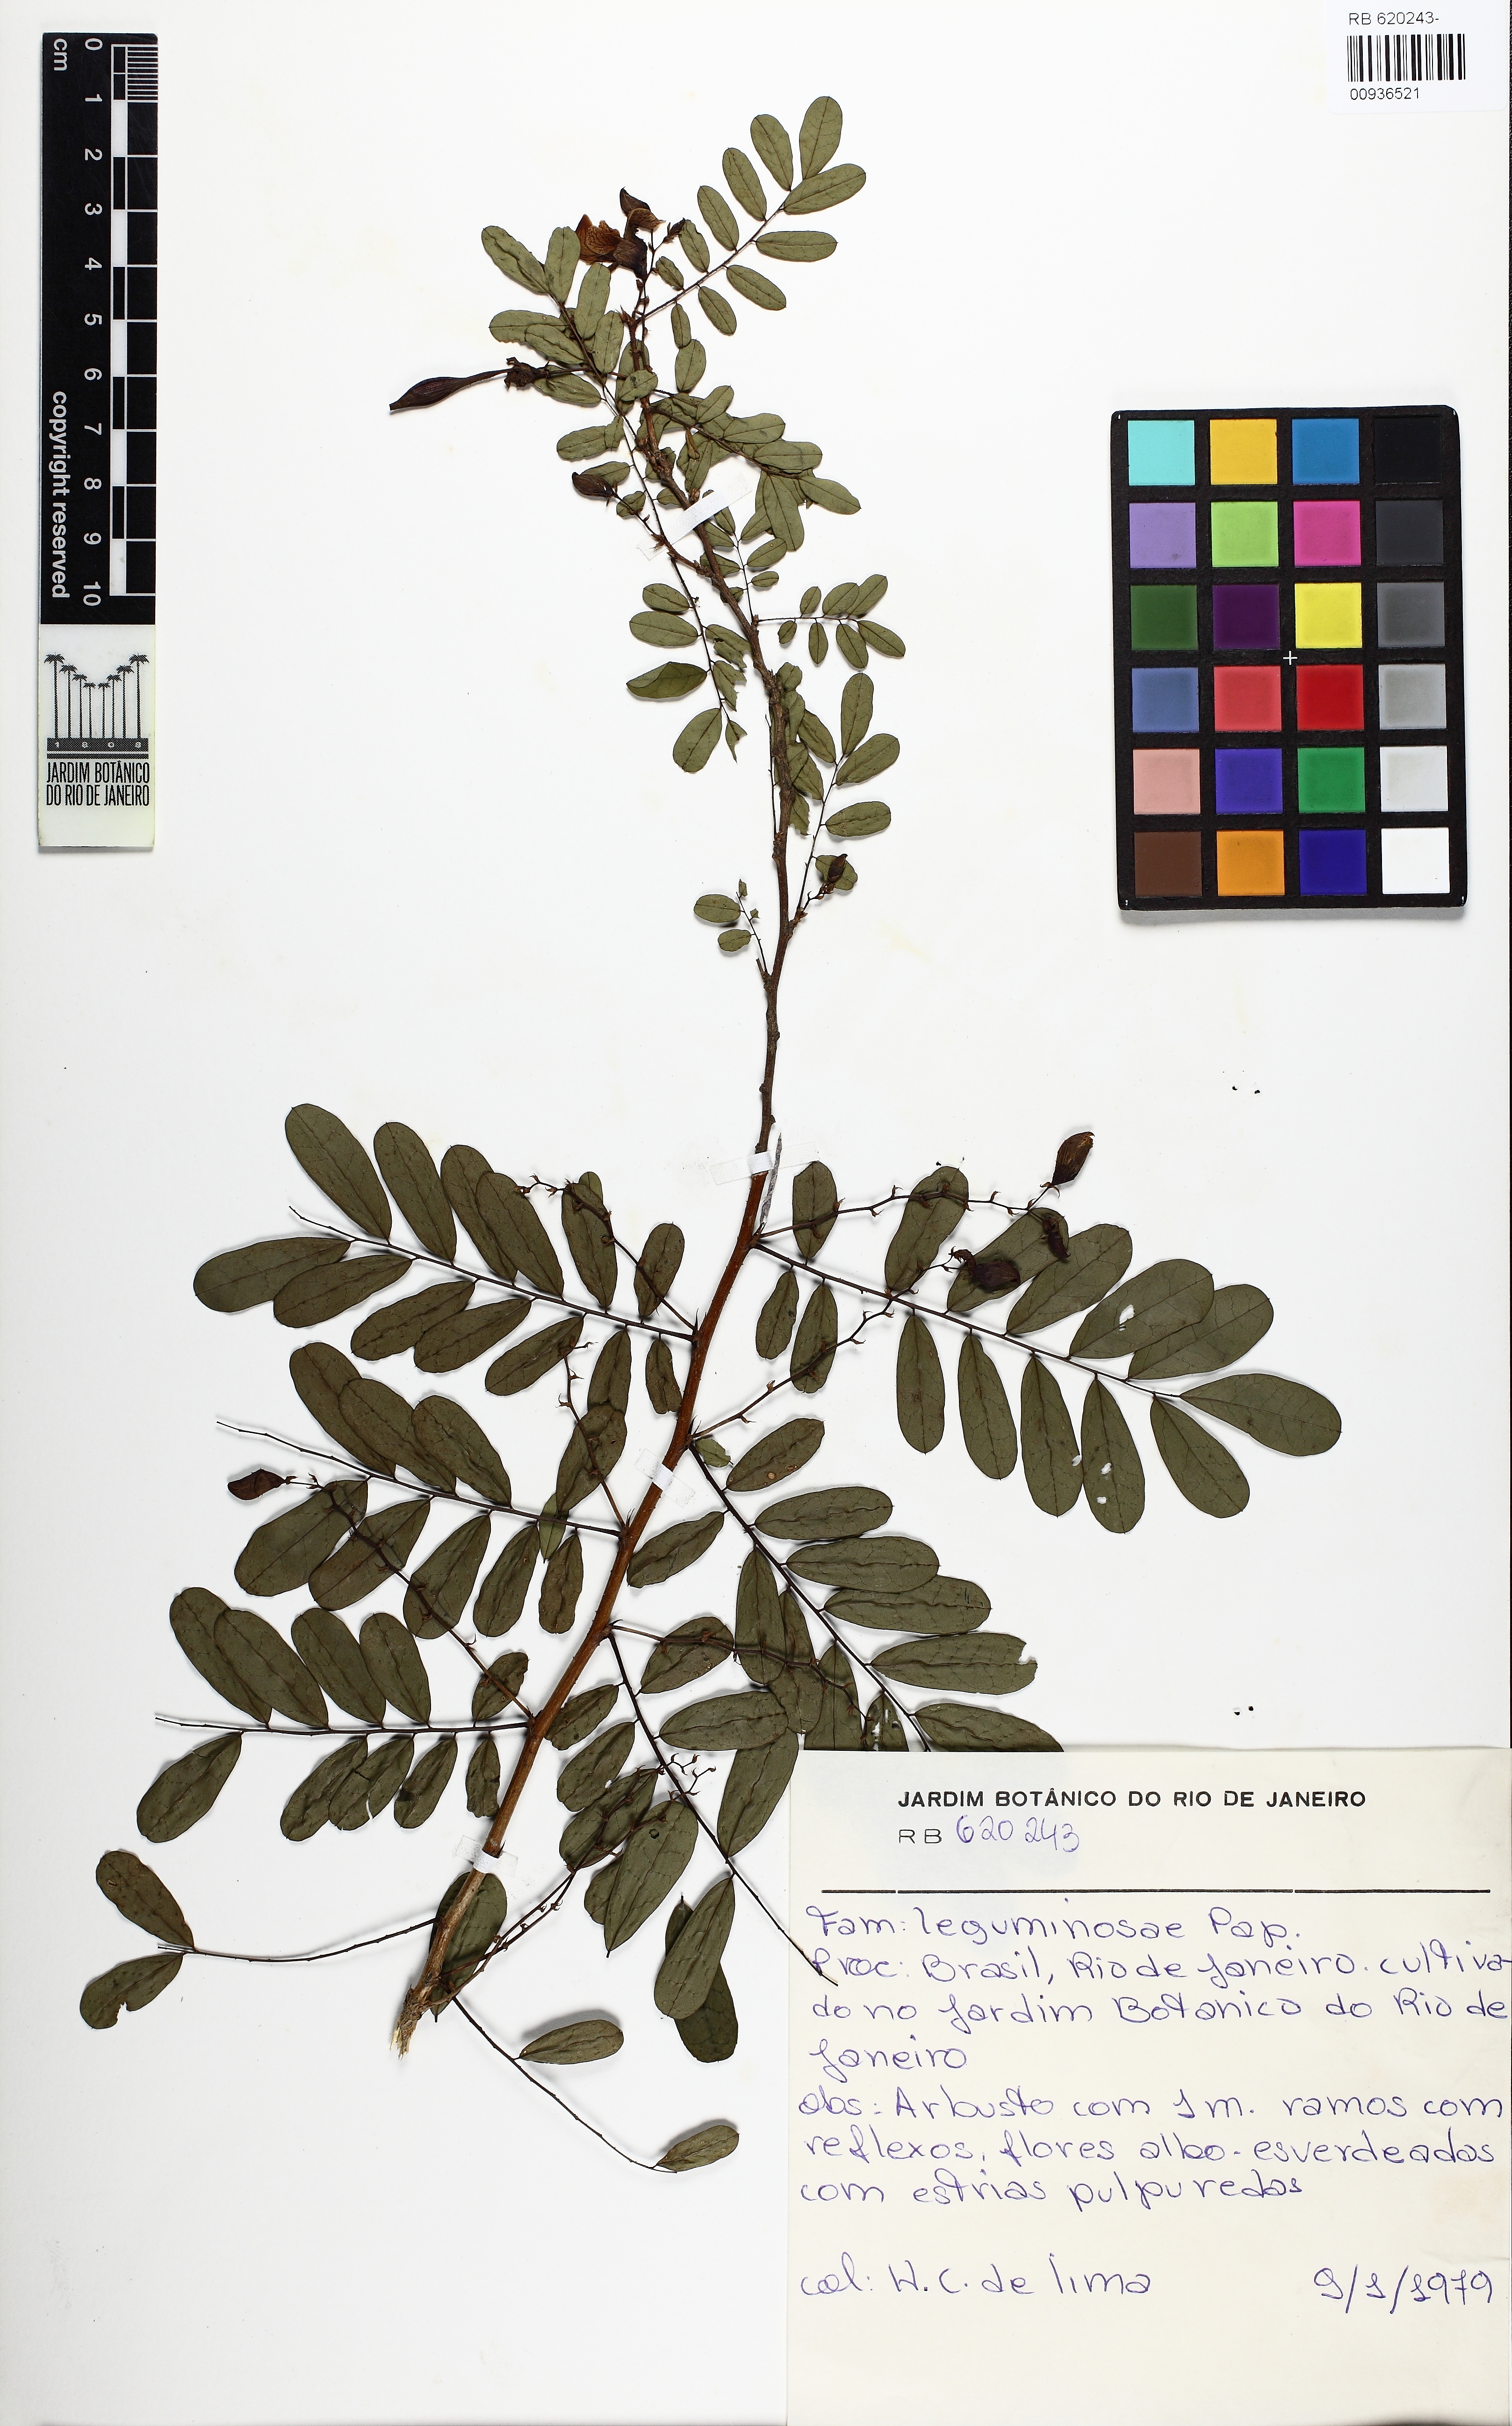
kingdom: Plantae
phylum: Tracheophyta
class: Magnoliopsida
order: Fabales
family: Fabaceae
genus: Ormocarpum
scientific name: Ormocarpum sennoides
